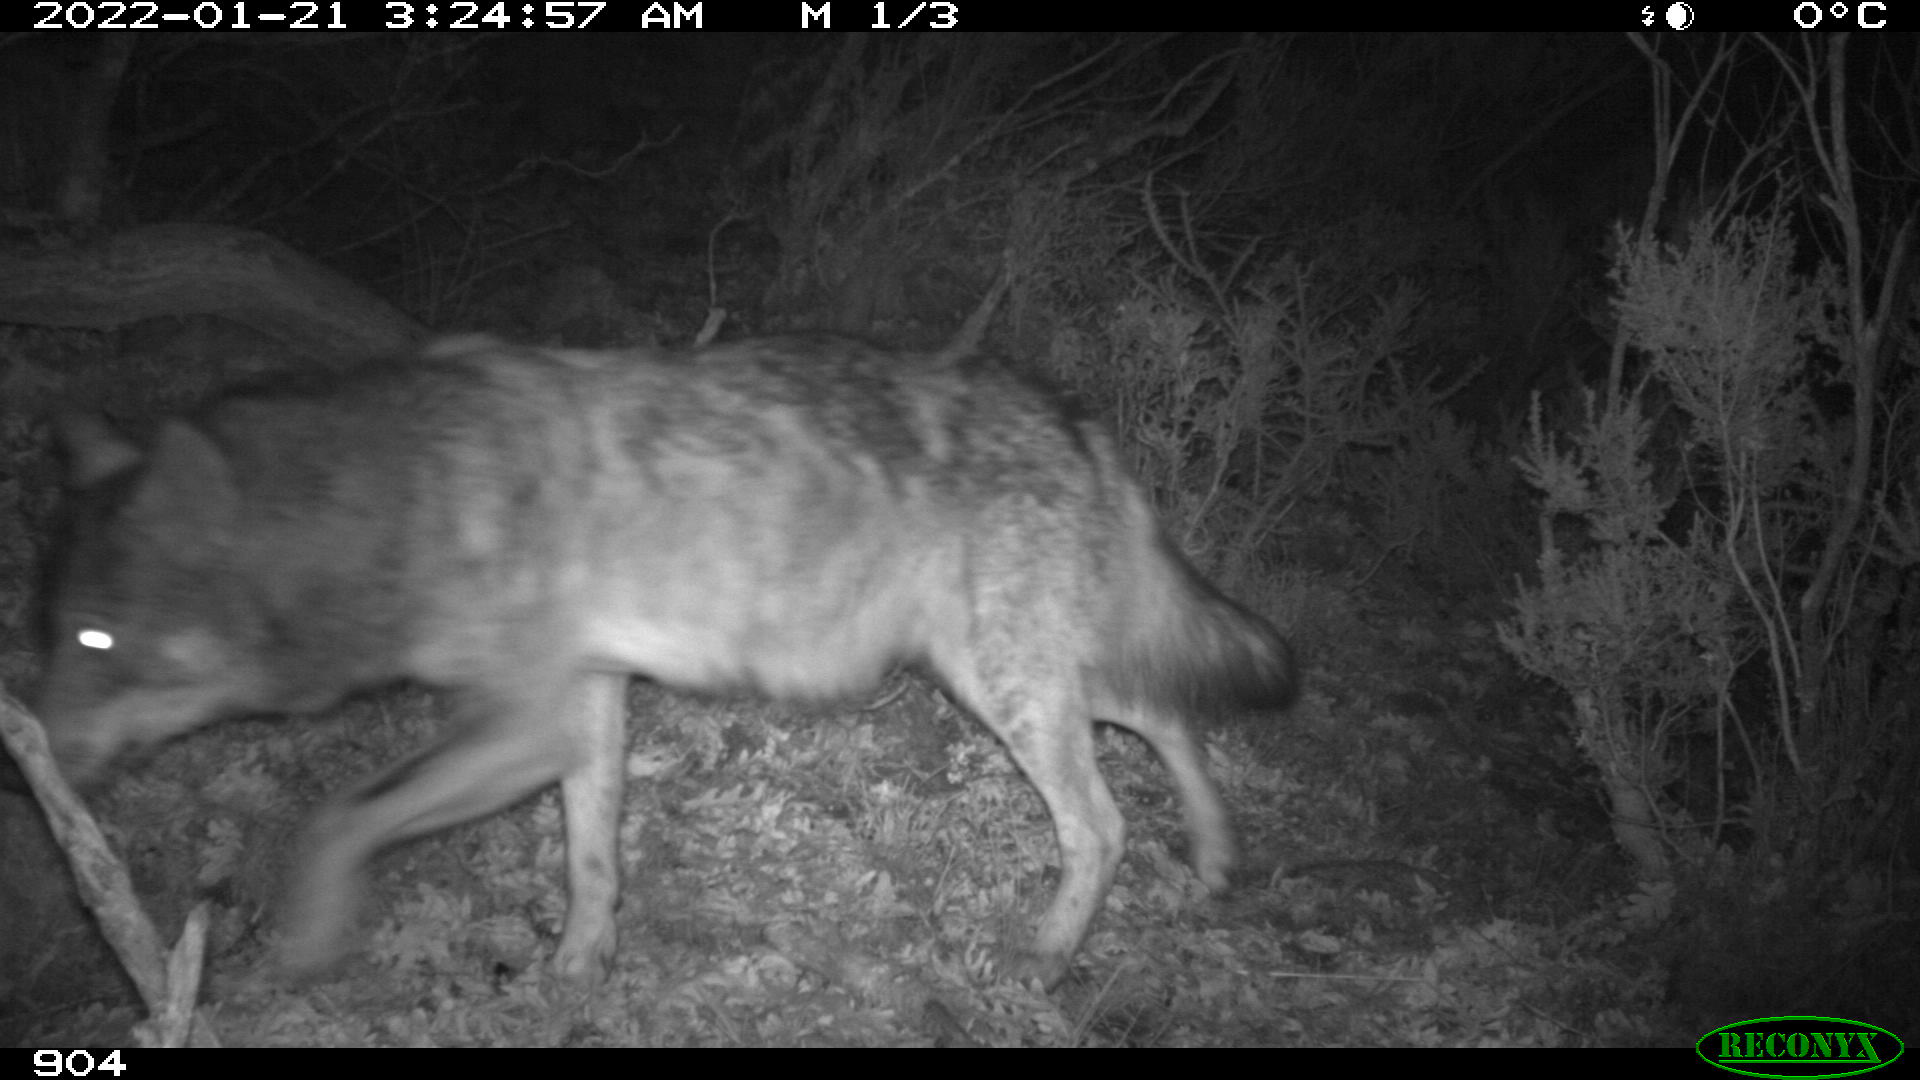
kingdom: Animalia
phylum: Chordata
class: Mammalia
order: Carnivora
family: Canidae
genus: Canis
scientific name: Canis lupus
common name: Gray wolf
